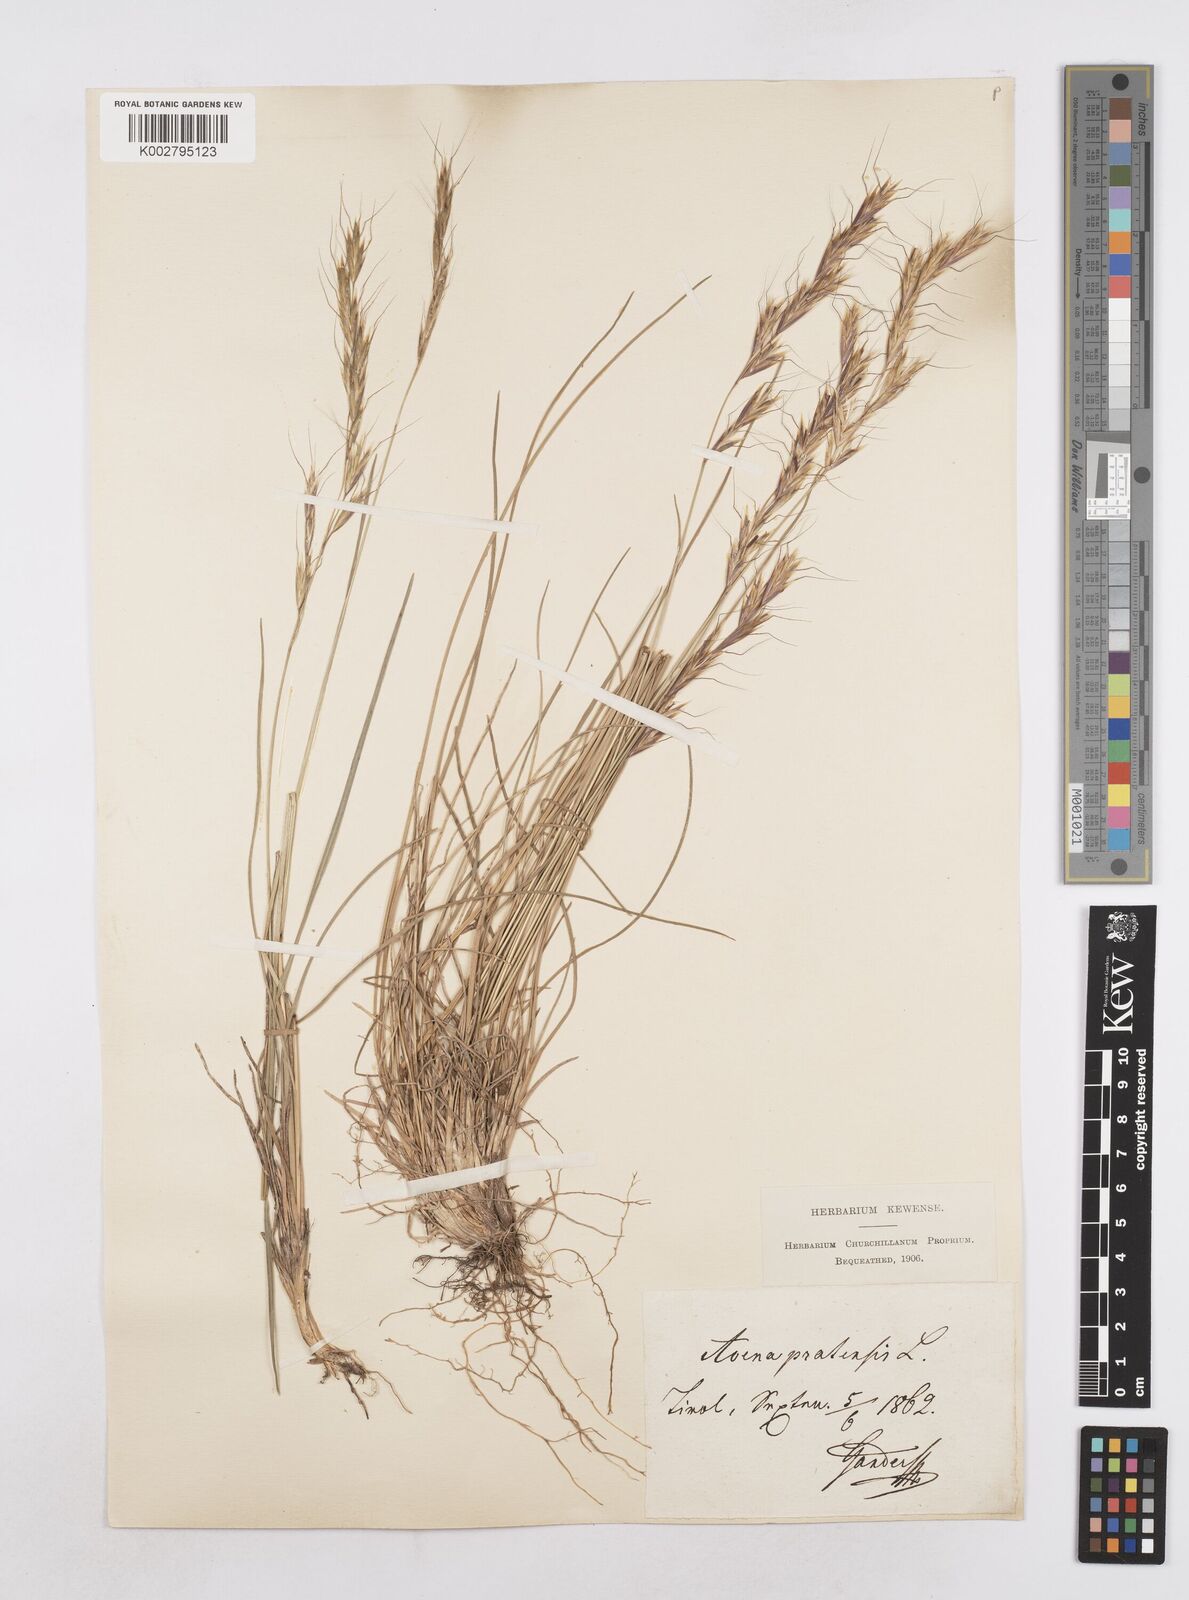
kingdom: Plantae
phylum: Tracheophyta
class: Liliopsida
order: Poales
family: Poaceae
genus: Helictochloa
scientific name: Helictochloa pratensis
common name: Meadow oat grass
